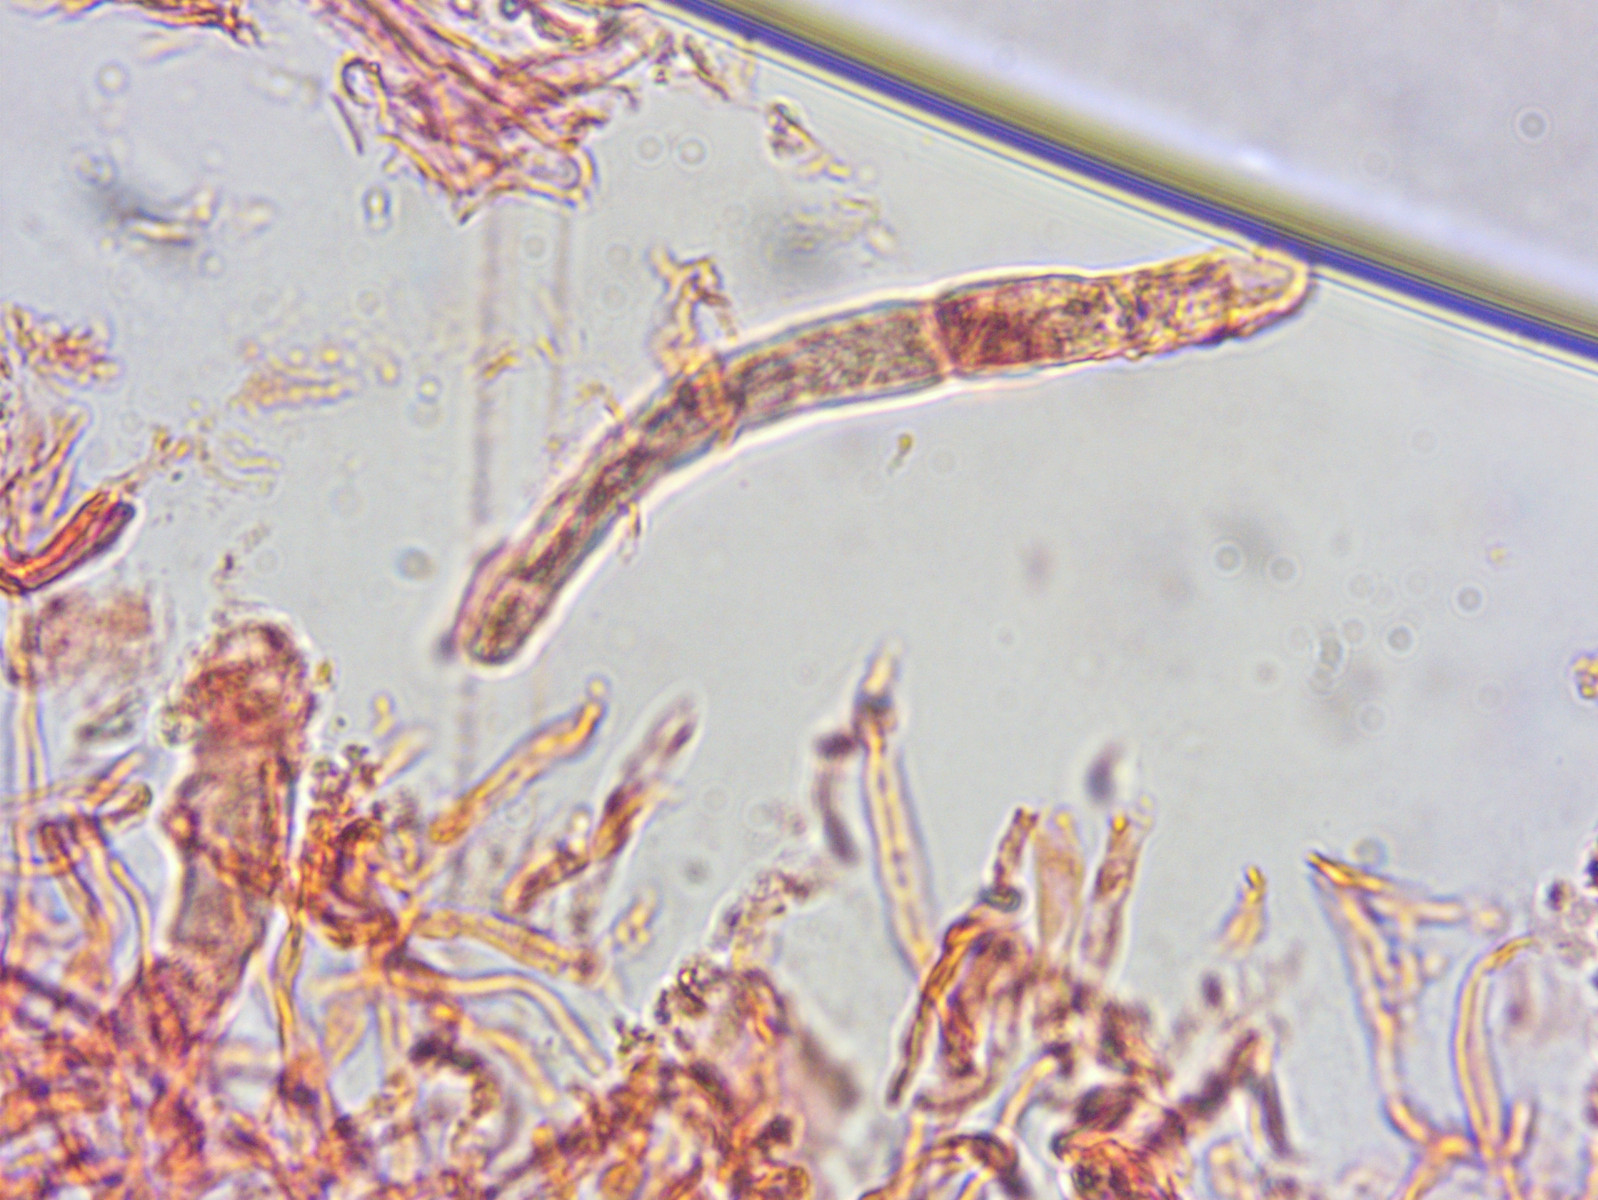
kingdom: Fungi
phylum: Basidiomycota
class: Agaricomycetes
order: Russulales
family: Russulaceae
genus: Russula
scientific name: Russula veternosa
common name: blødkødet skørhat
